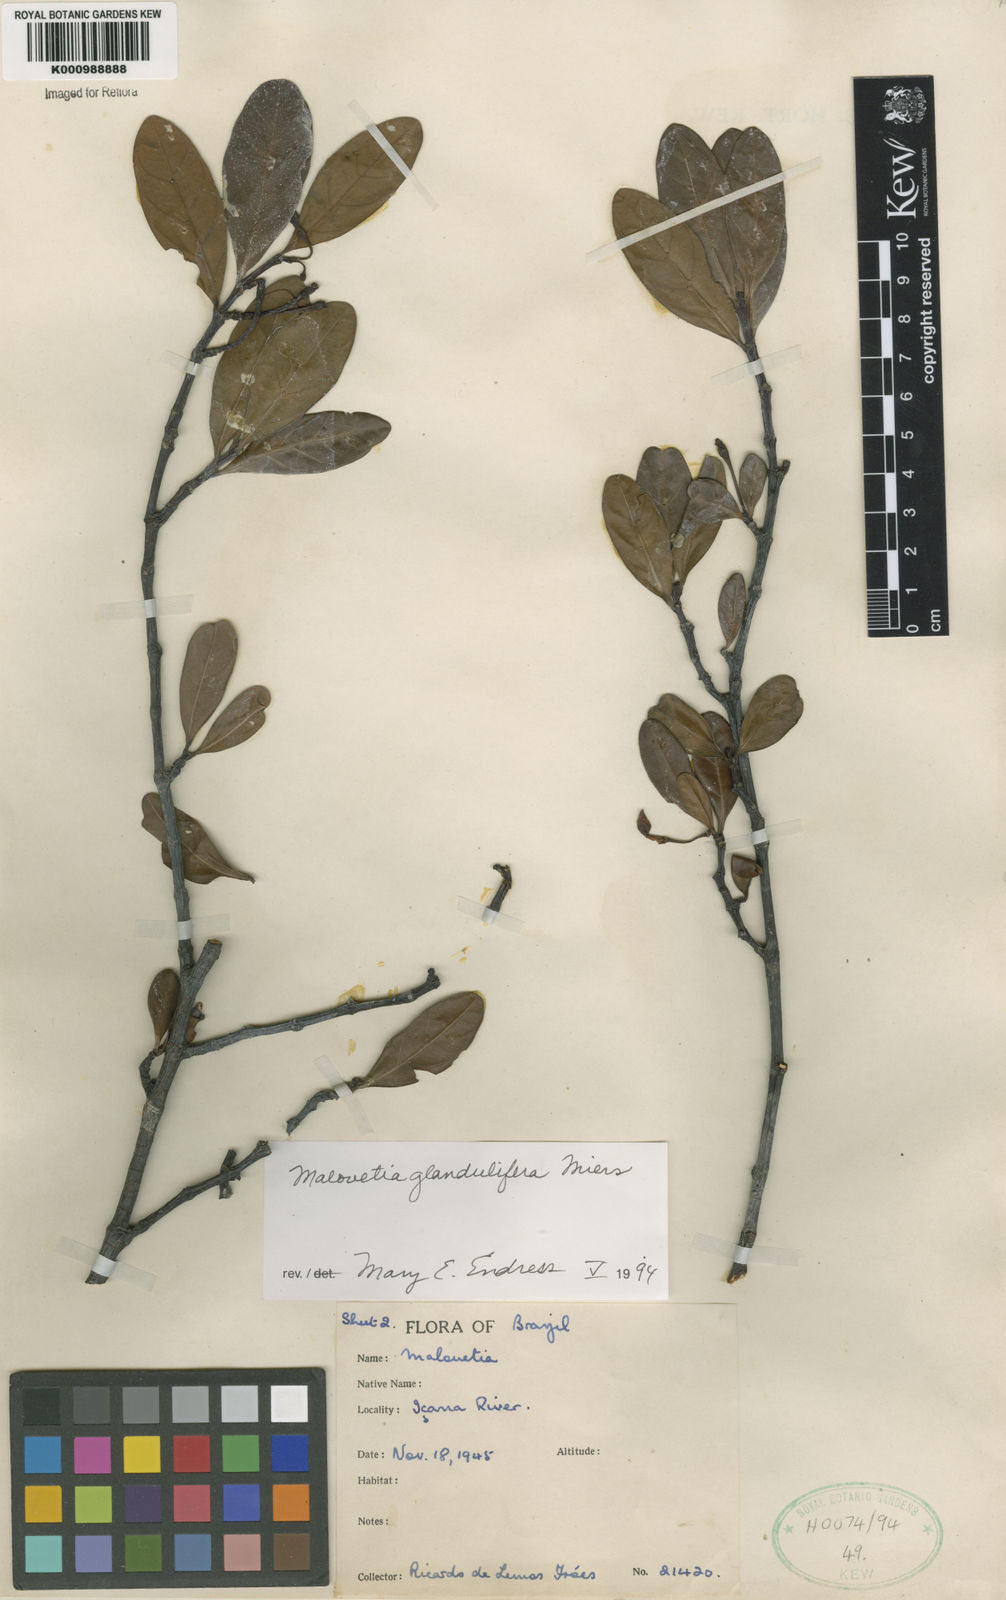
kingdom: Plantae
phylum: Tracheophyta
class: Magnoliopsida
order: Gentianales
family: Apocynaceae
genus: Malouetia
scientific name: Malouetia glandulifera
